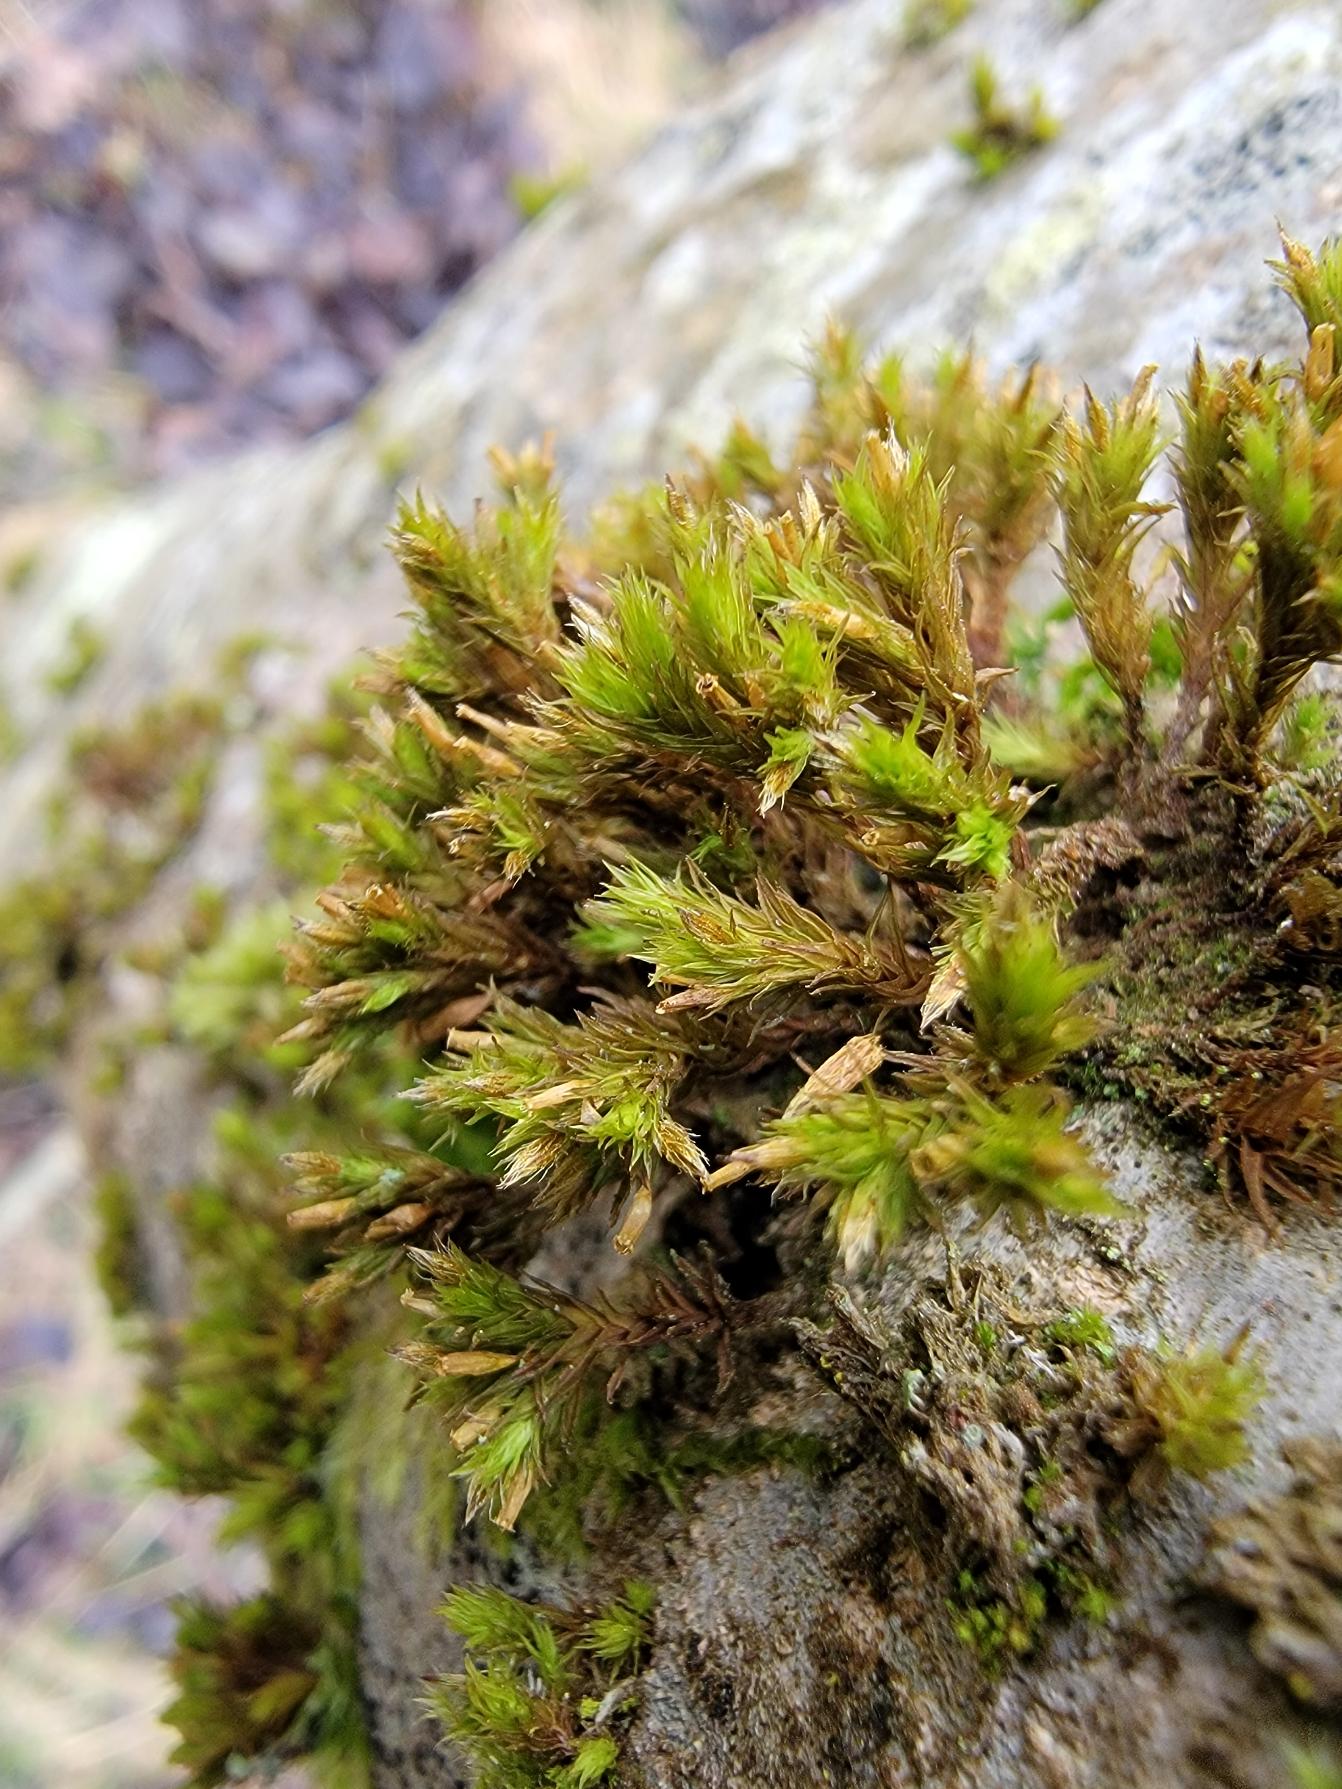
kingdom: Plantae
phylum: Bryophyta
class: Bryopsida
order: Orthotrichales
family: Orthotrichaceae
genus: Lewinskya
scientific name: Lewinskya speciosa
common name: Kortstribet furehætte
